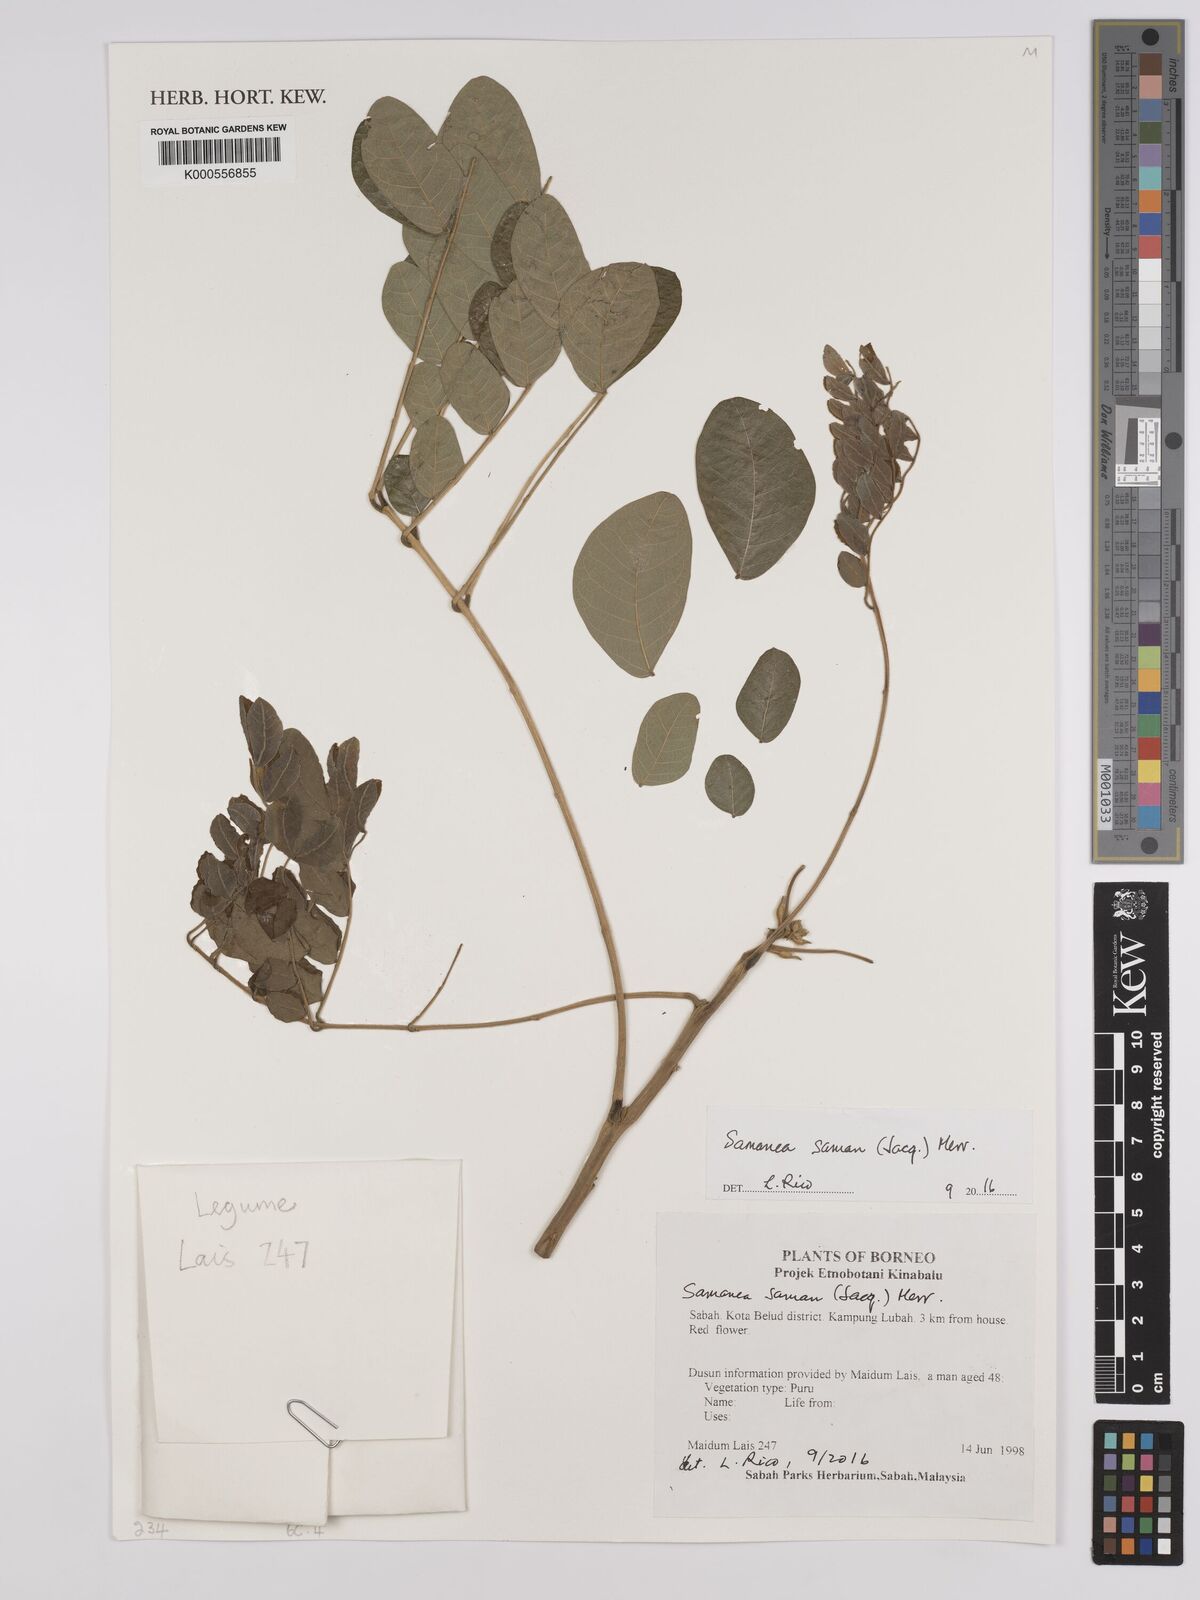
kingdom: Plantae
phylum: Tracheophyta
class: Magnoliopsida
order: Fabales
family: Fabaceae
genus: Samanea
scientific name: Samanea saman
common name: Raintree
